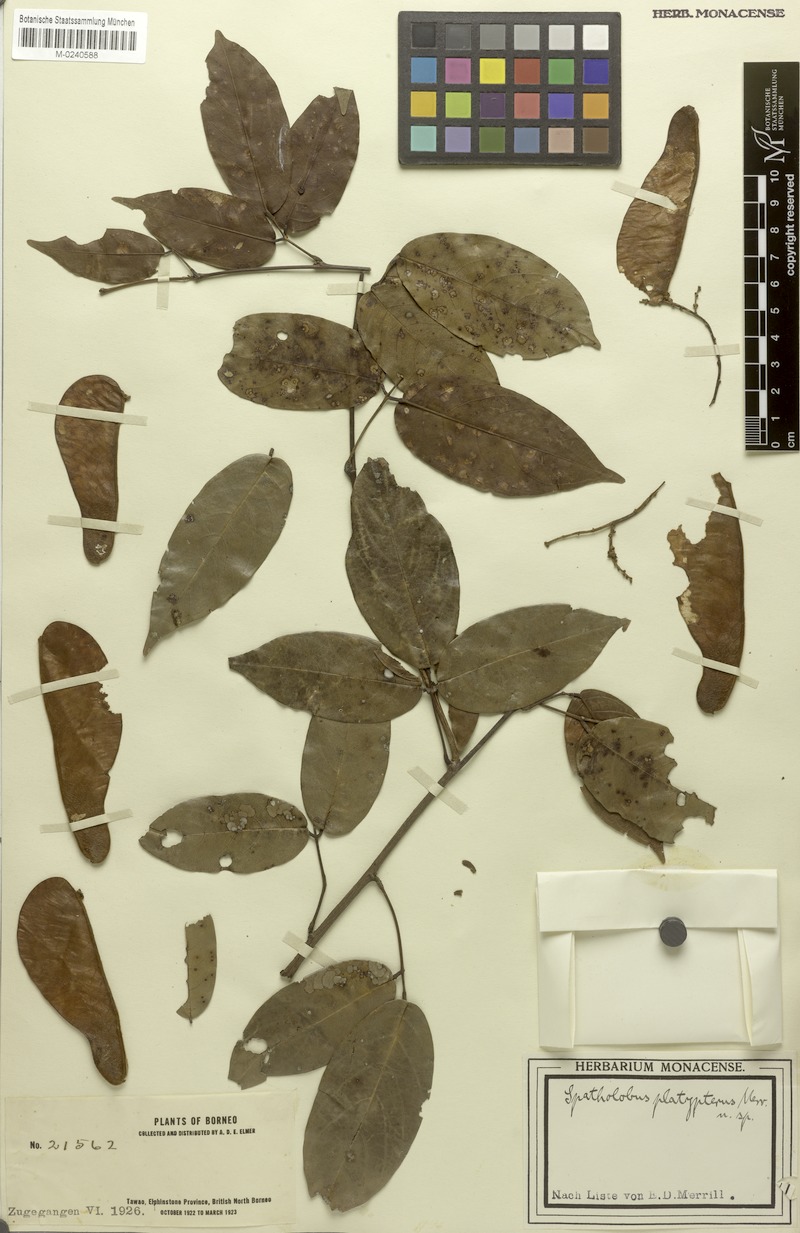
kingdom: Plantae
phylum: Tracheophyta
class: Magnoliopsida
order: Fabales
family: Fabaceae
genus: Spatholobus
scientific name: Spatholobus macropterus
